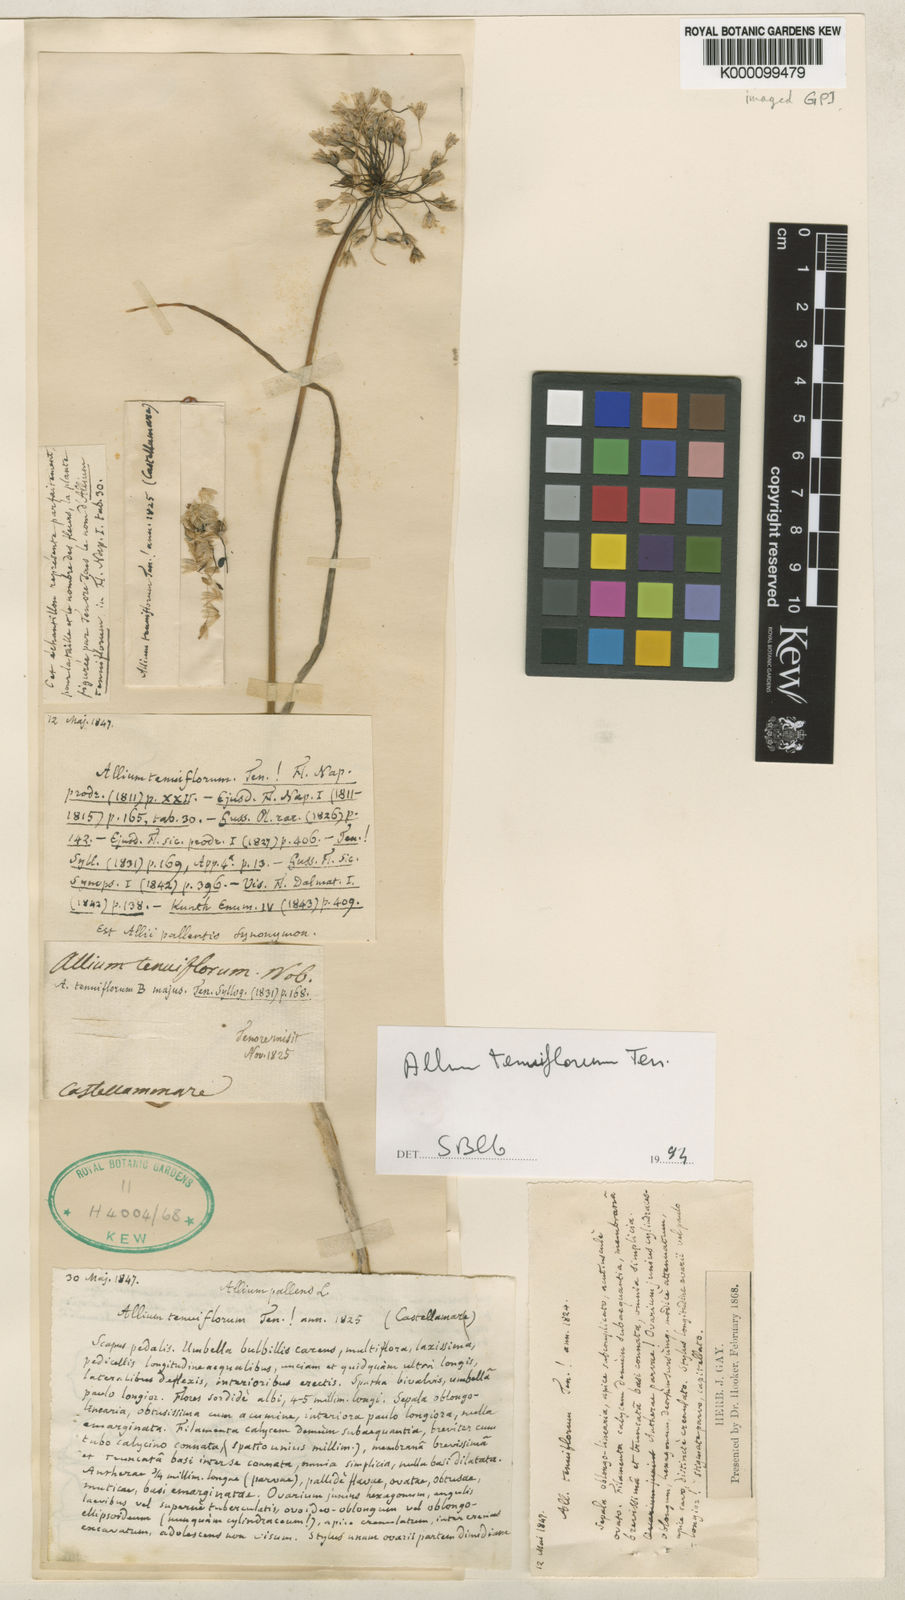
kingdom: Plantae
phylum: Tracheophyta
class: Liliopsida
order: Asparagales
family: Amaryllidaceae
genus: Allium
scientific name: Allium tenuiflorum
